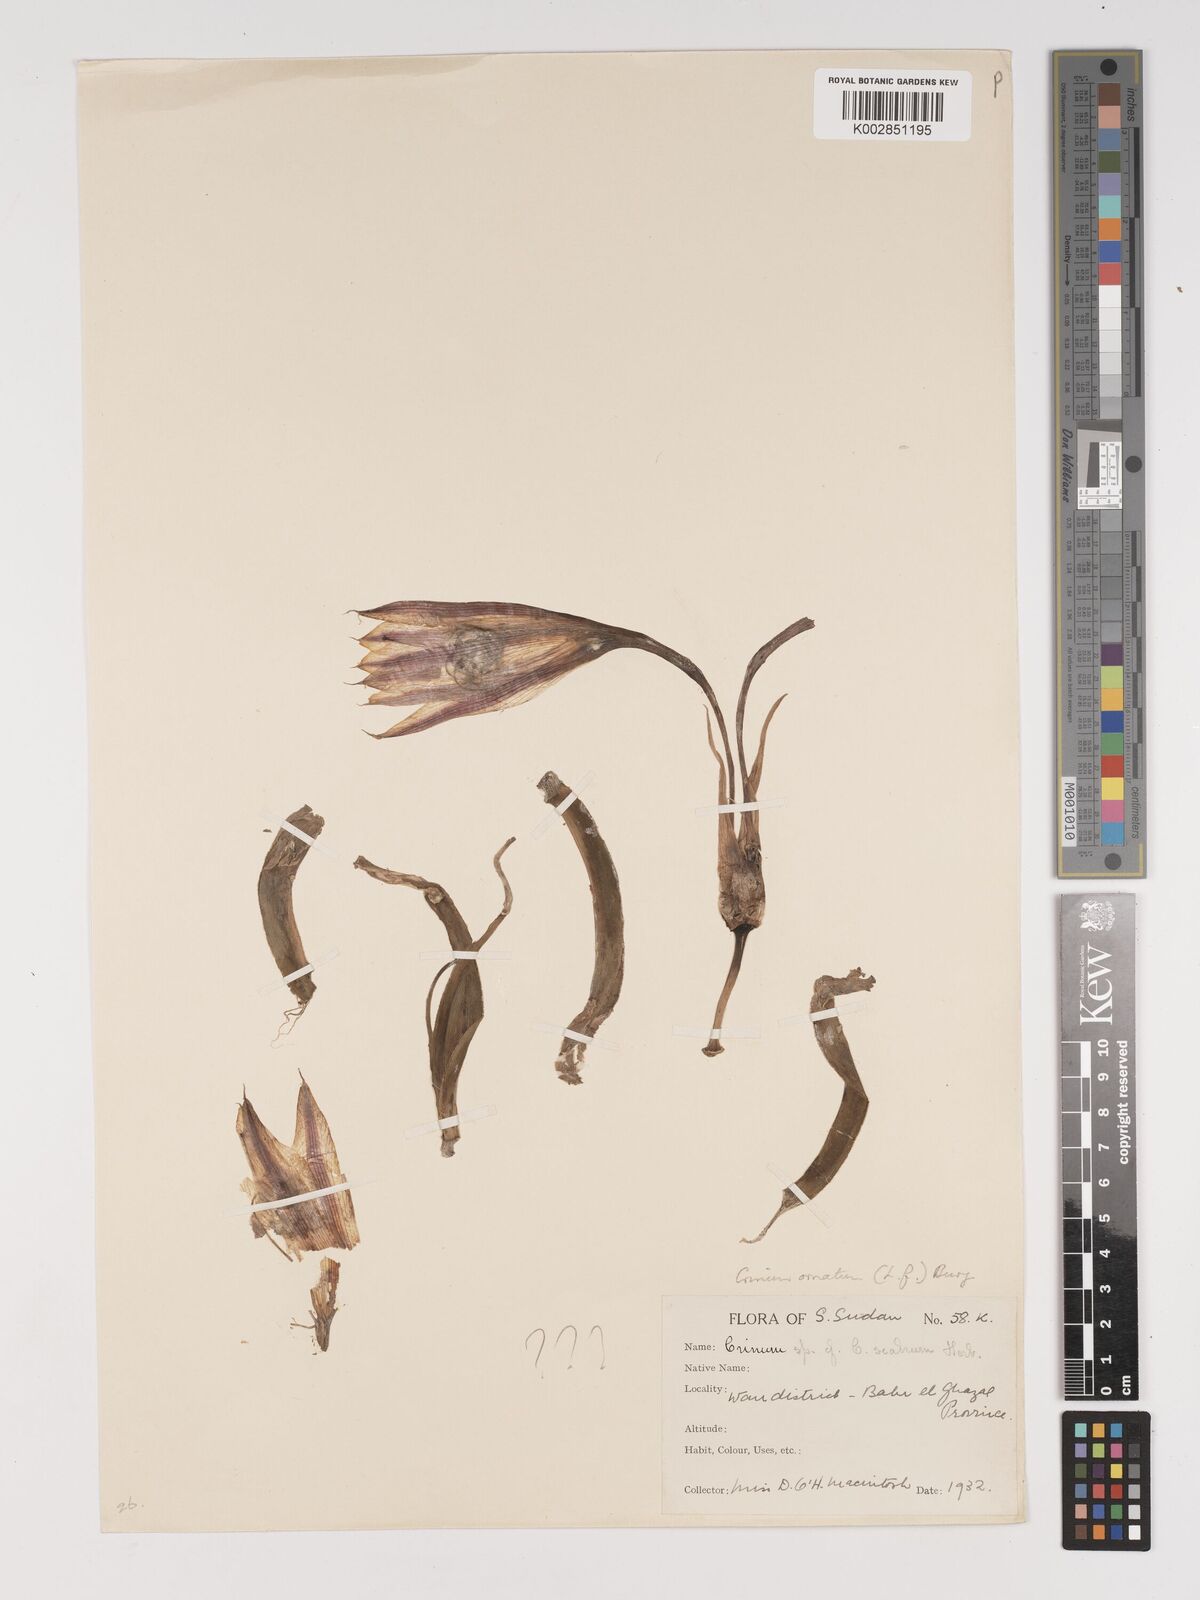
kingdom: Plantae
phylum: Tracheophyta
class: Liliopsida
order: Asparagales
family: Amaryllidaceae
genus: Crinum
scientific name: Crinum zeylanicum
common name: Ceylon swamplily
